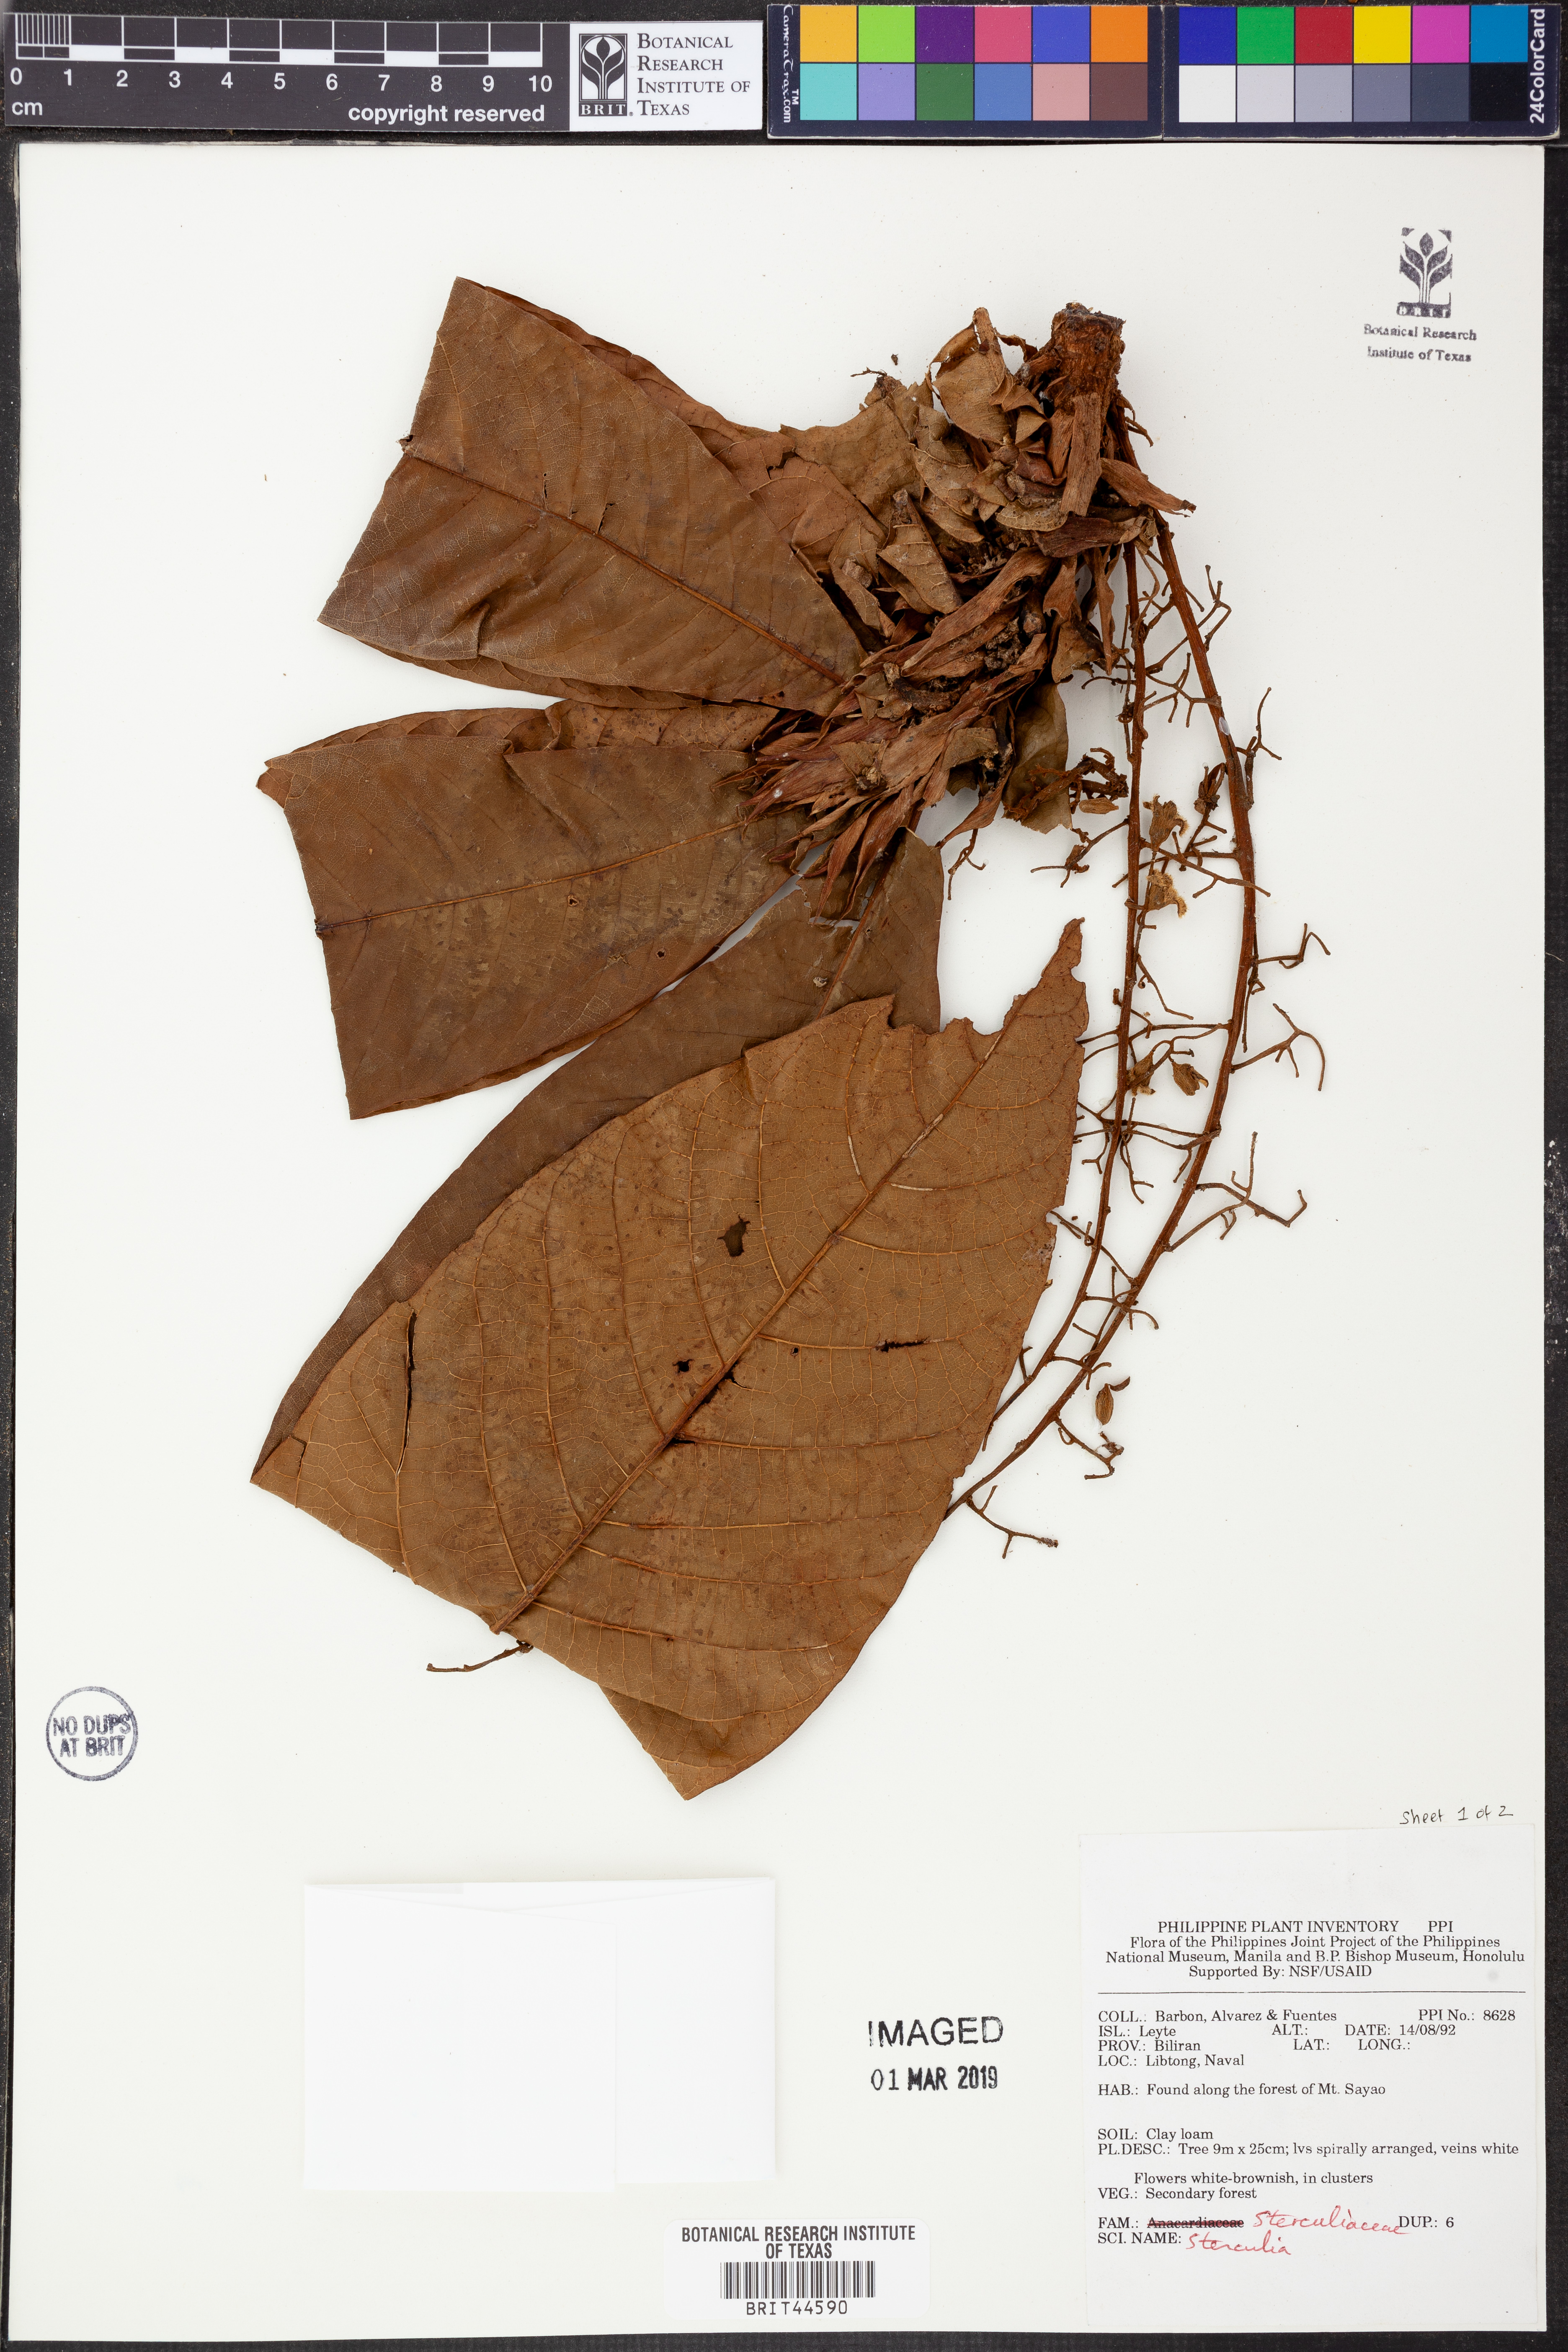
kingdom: Plantae
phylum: Tracheophyta
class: Magnoliopsida
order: Malvales
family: Malvaceae
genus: Sterculia
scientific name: Sterculia
